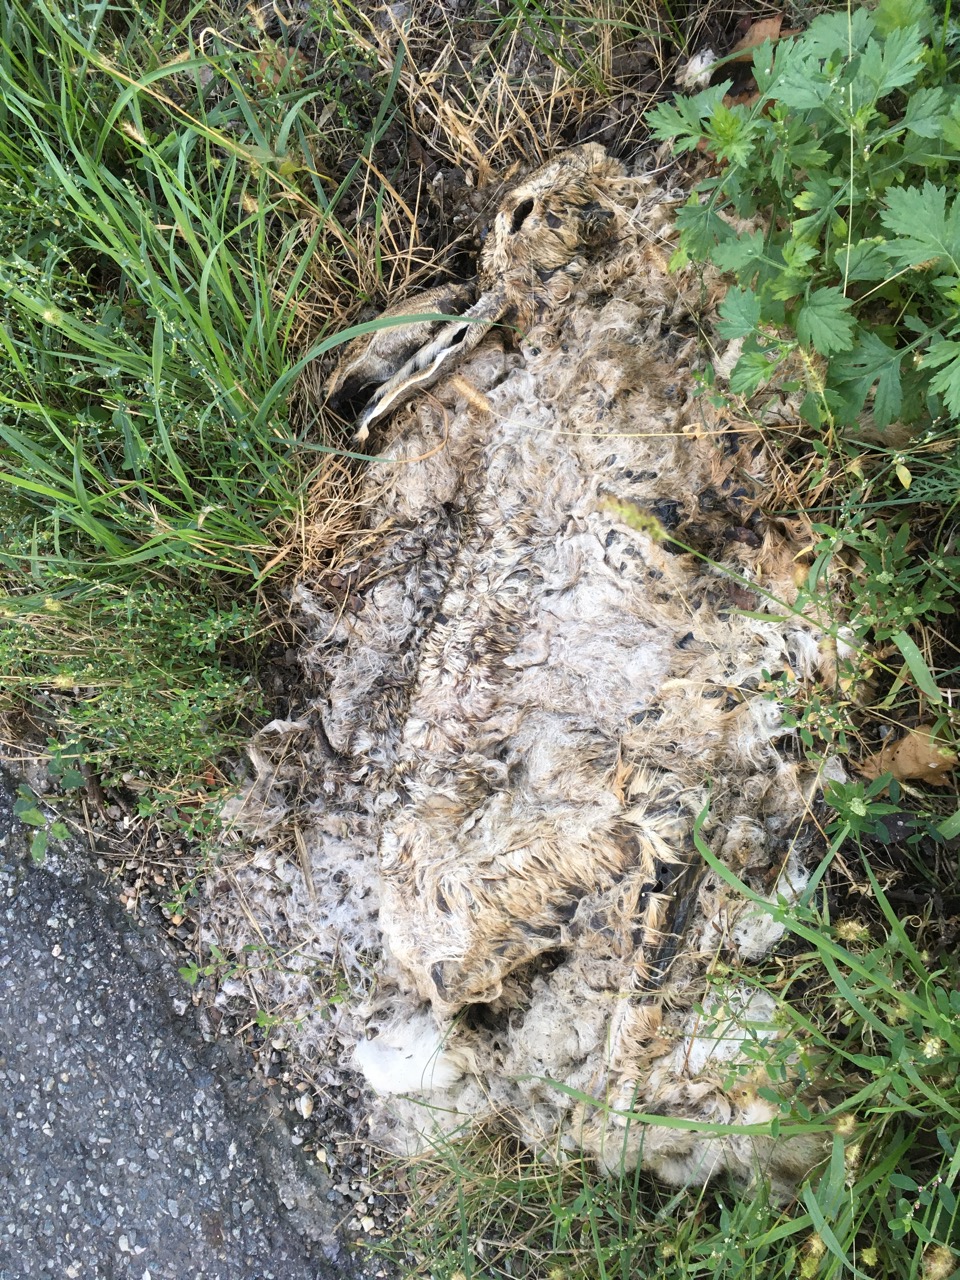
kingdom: Animalia
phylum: Chordata
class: Mammalia
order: Lagomorpha
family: Leporidae
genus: Lepus
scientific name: Lepus europaeus
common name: European hare
